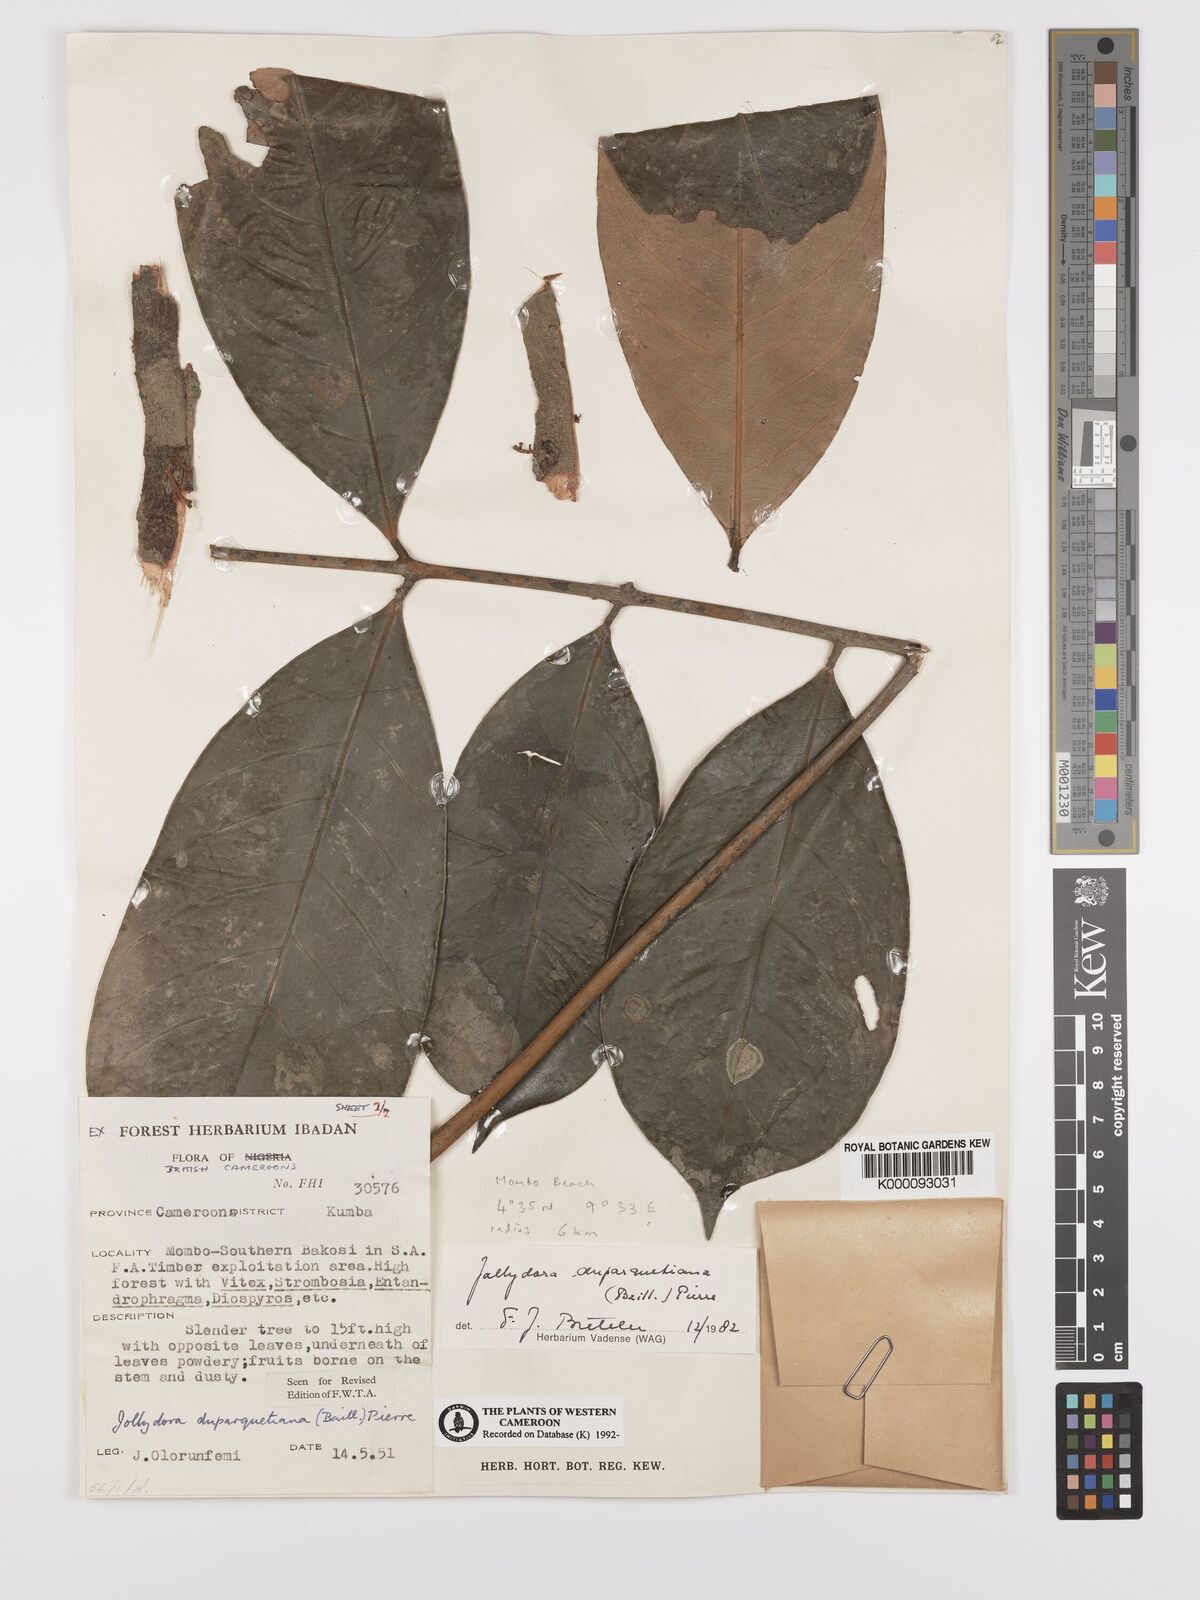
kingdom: Plantae
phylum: Tracheophyta
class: Magnoliopsida
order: Oxalidales
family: Connaraceae
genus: Jollydora
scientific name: Jollydora duparquetiana
